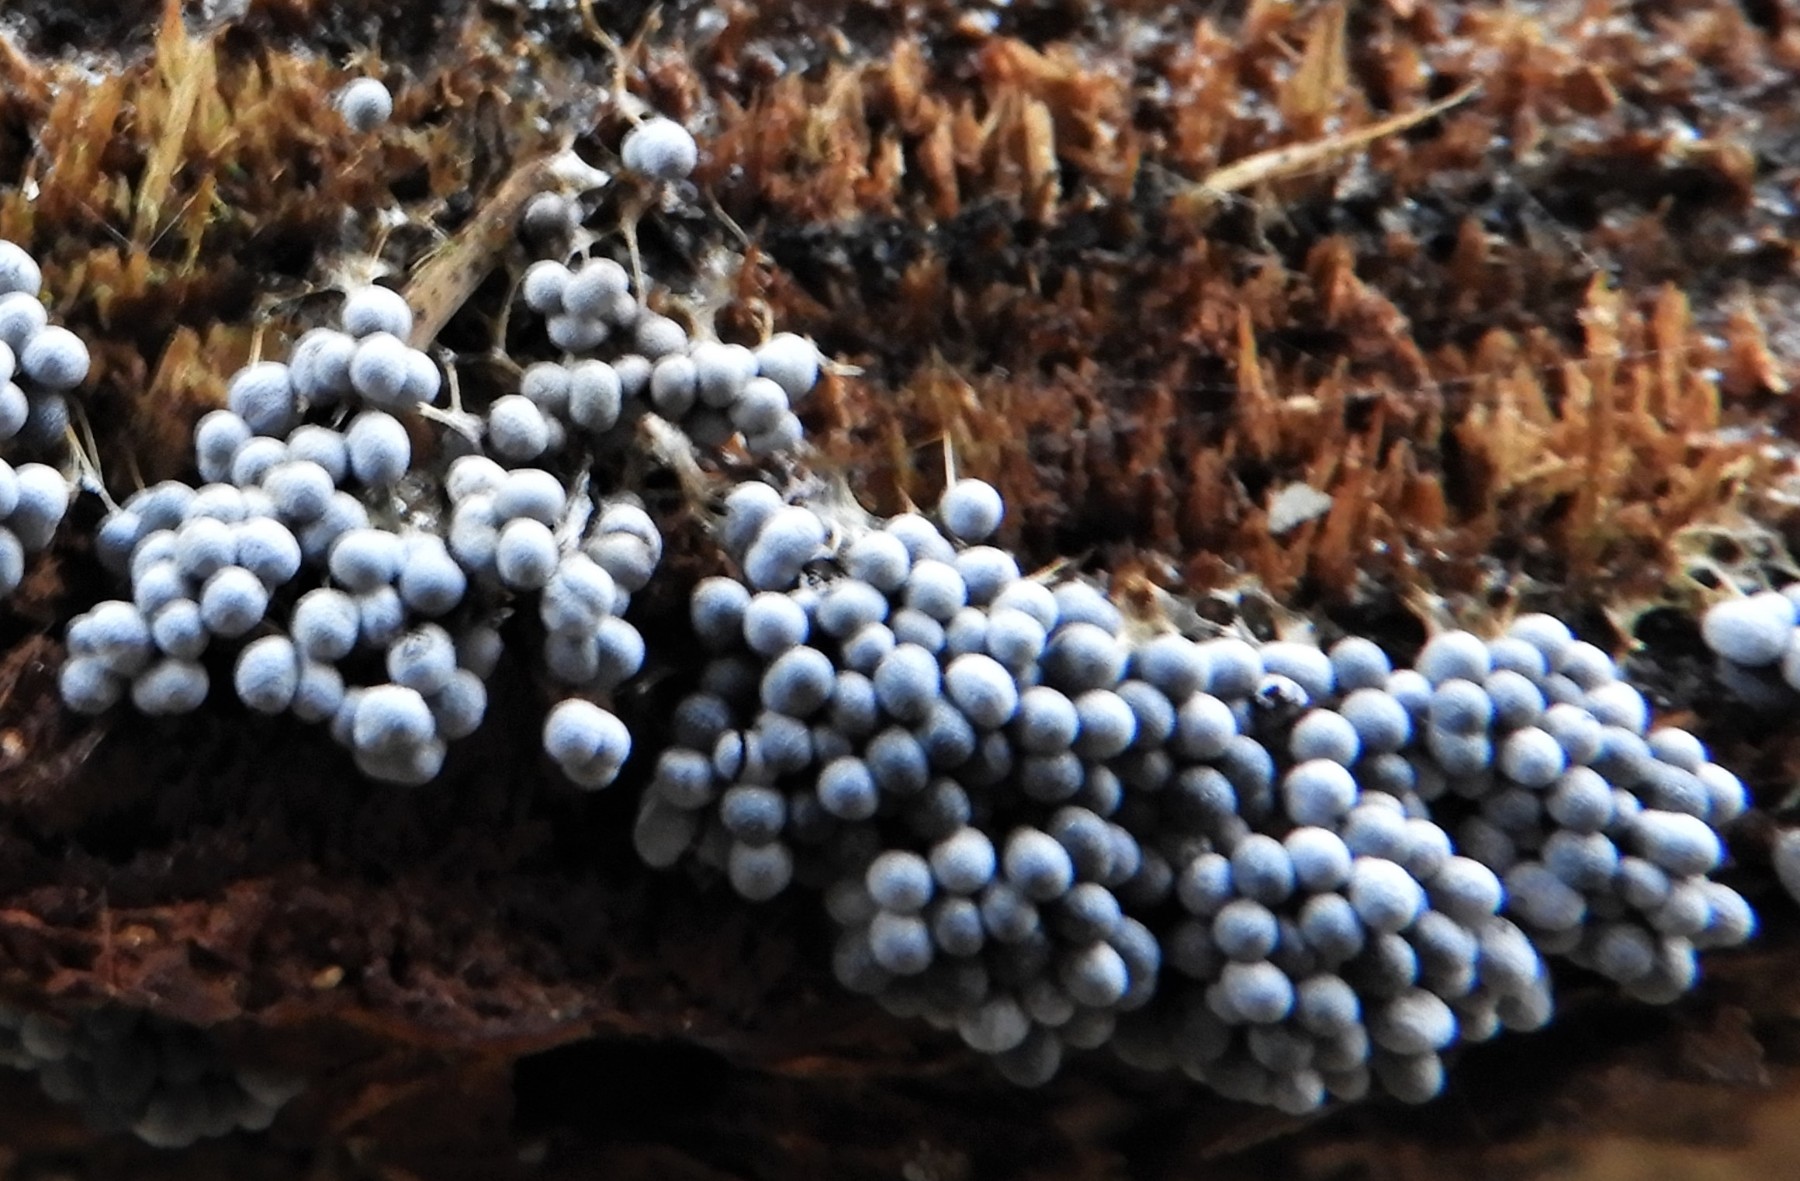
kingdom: Protozoa
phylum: Mycetozoa
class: Myxomycetes
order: Physarales
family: Physaraceae
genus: Badhamia
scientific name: Badhamia utricularis
